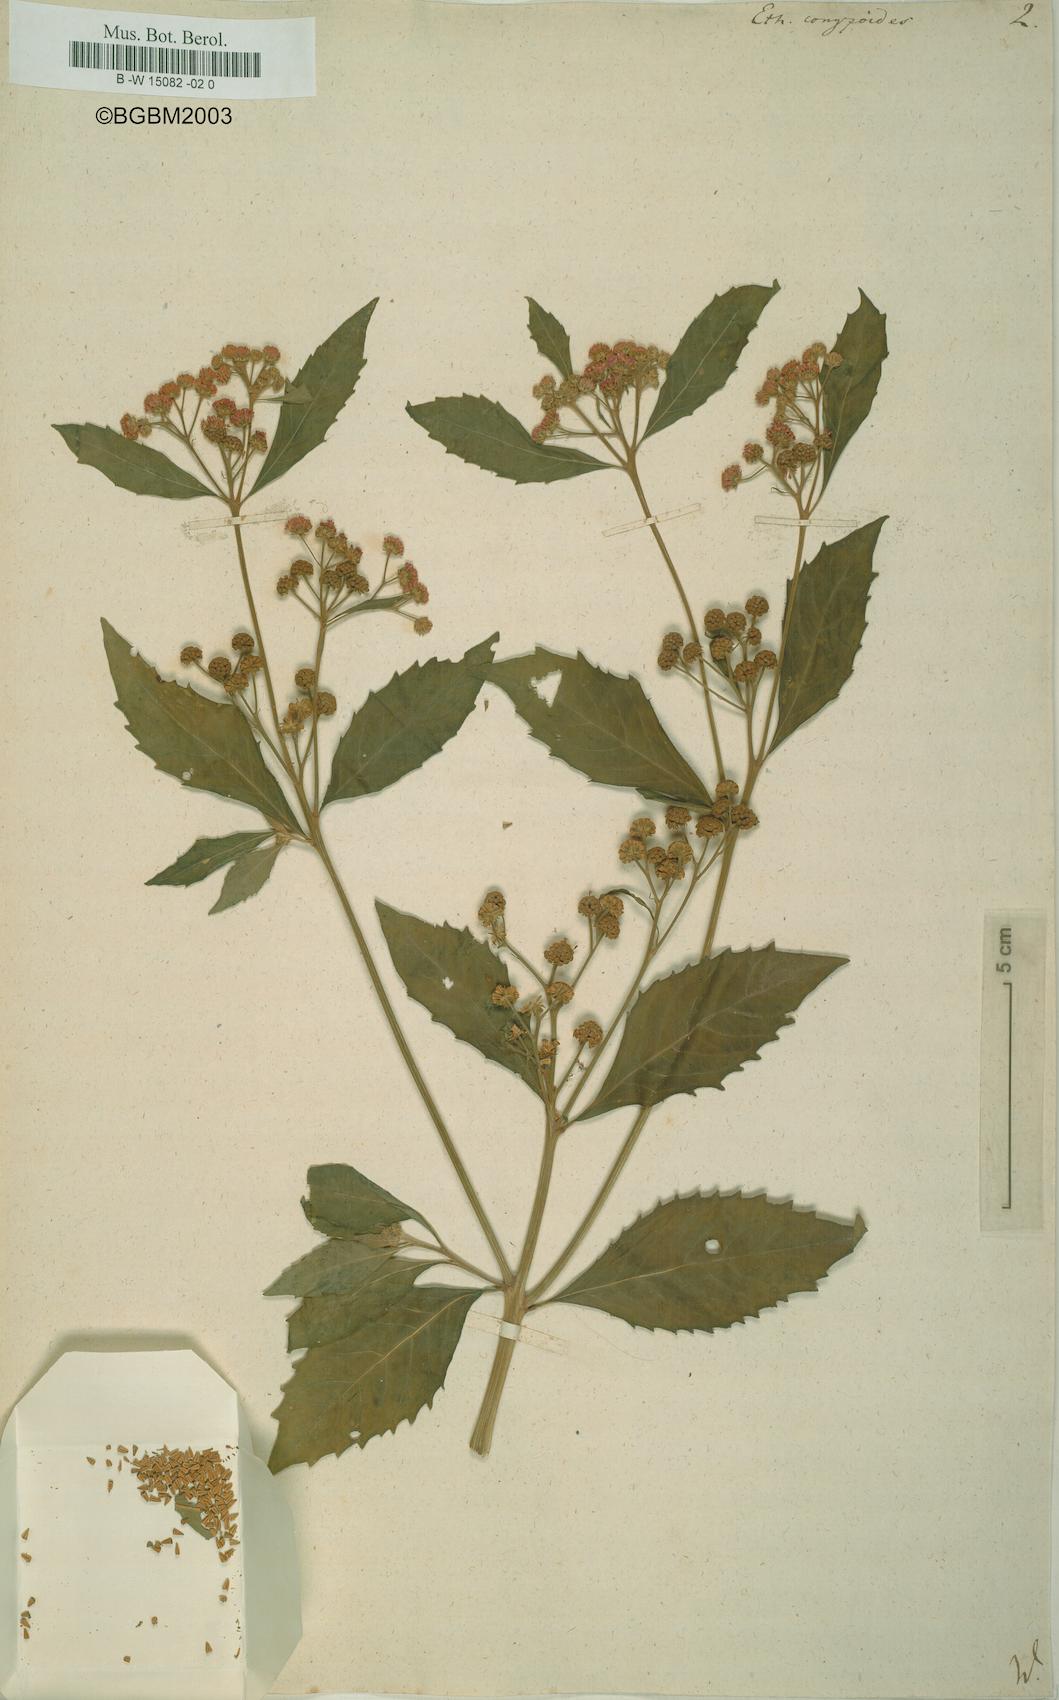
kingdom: Plantae
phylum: Tracheophyta
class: Magnoliopsida
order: Asterales
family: Asteraceae
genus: Ethulia
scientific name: Ethulia conyzoides
